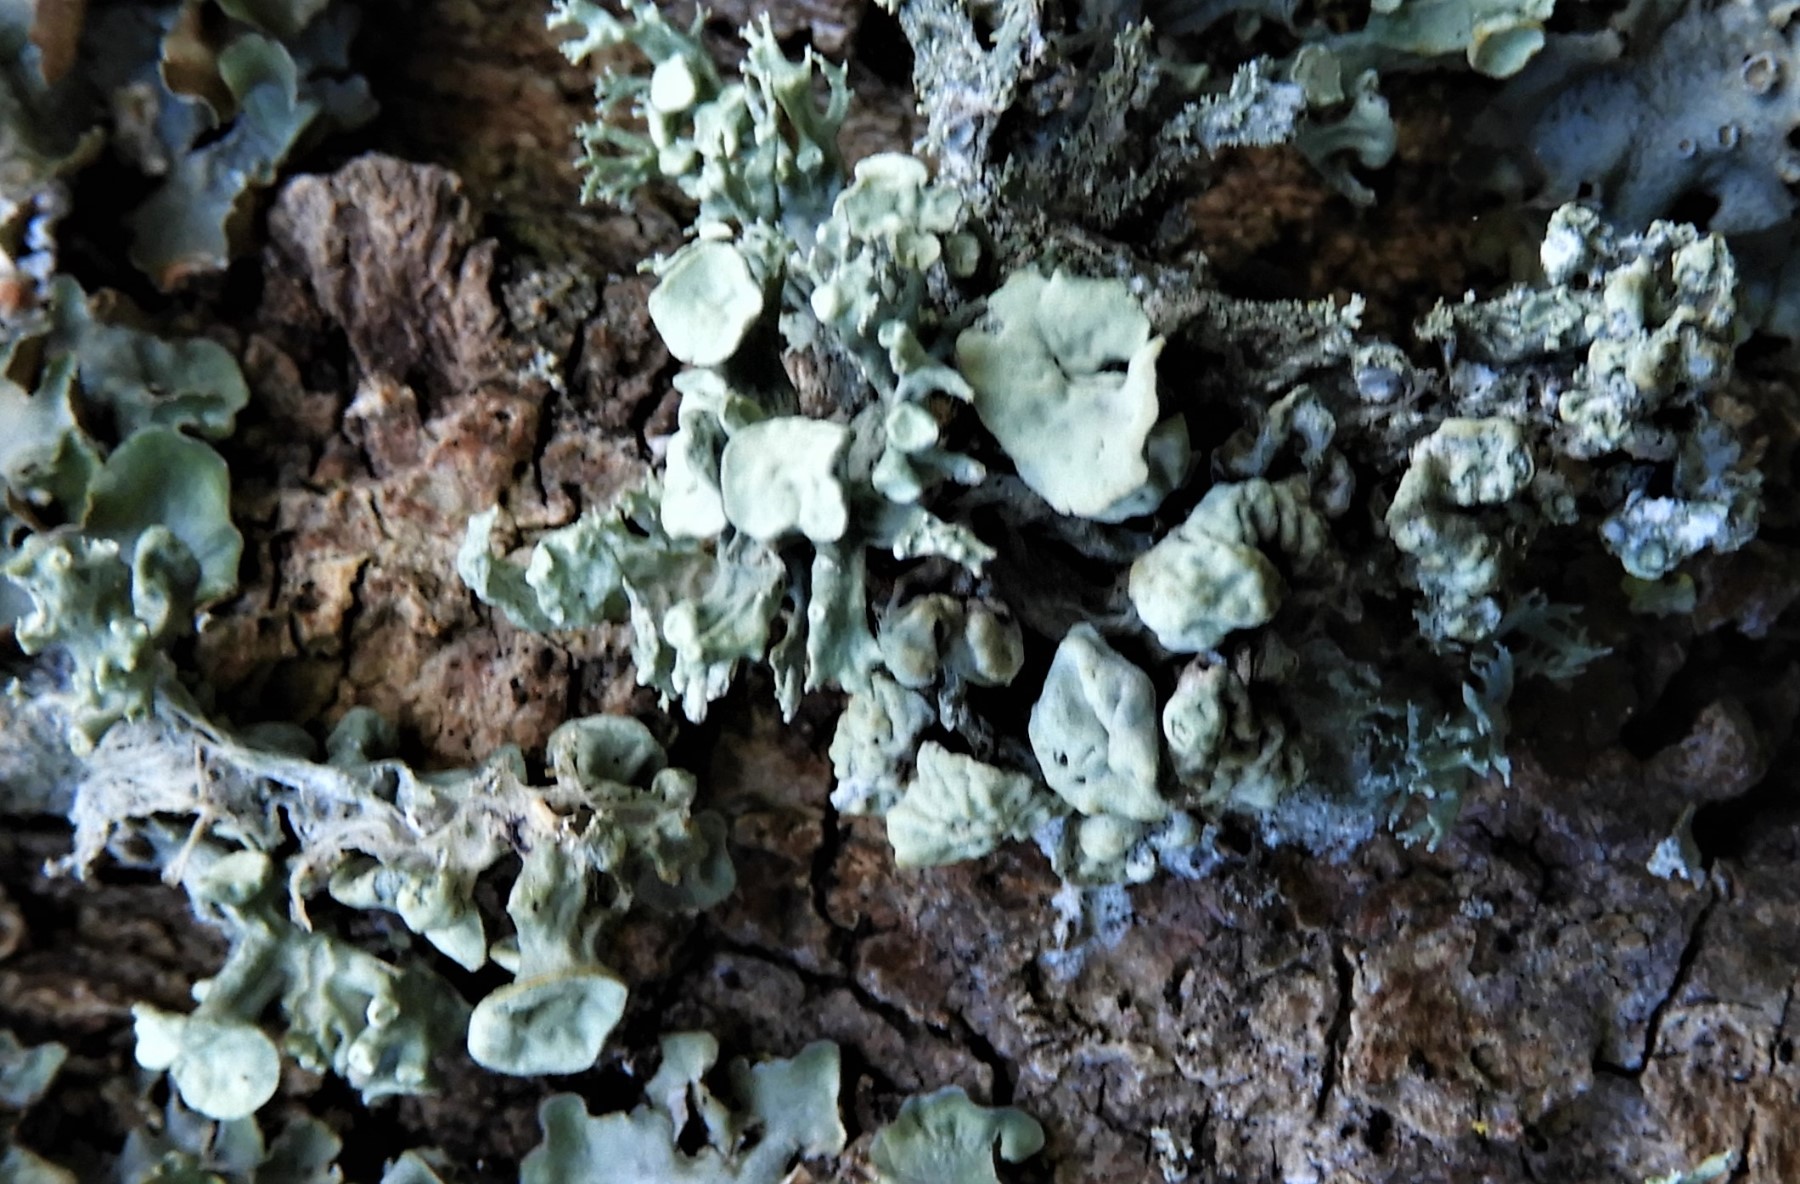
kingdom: Fungi
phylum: Ascomycota
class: Lecanoromycetes
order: Lecanorales
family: Ramalinaceae
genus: Ramalina
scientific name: Ramalina fastigiata
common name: tue-grenlav
